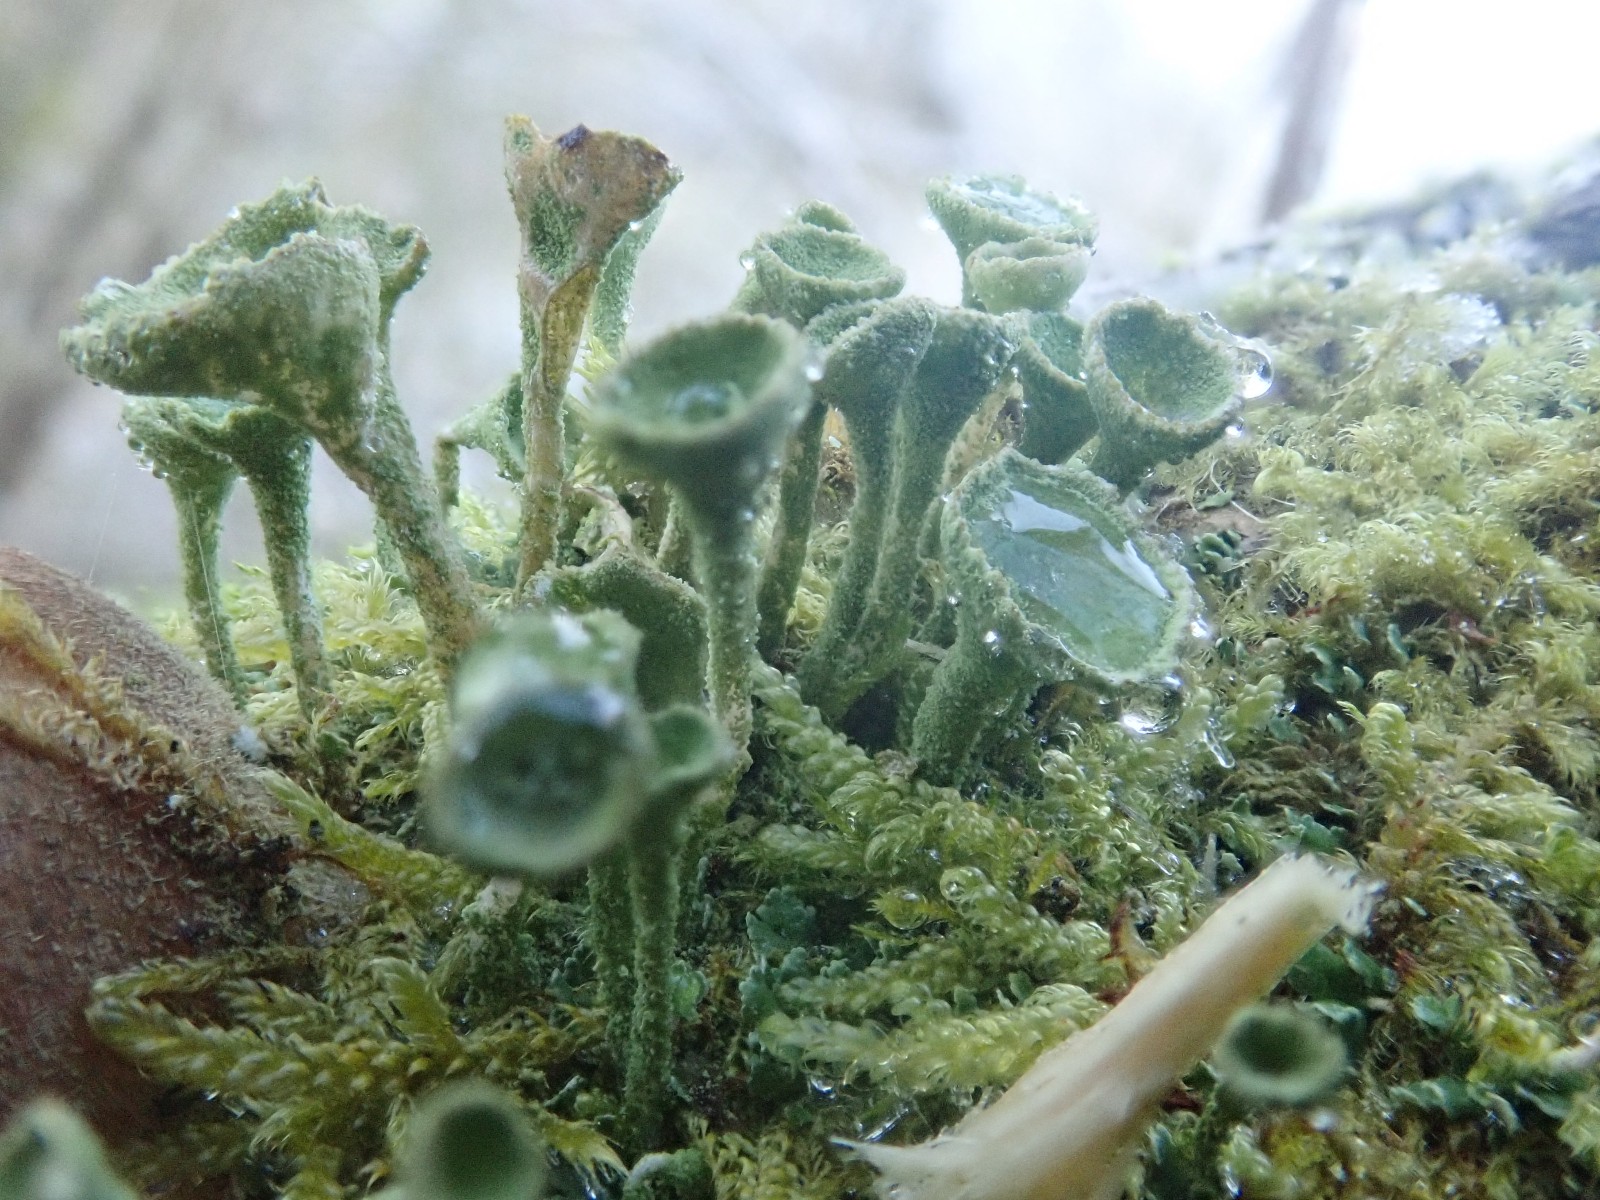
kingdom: Fungi
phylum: Ascomycota
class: Lecanoromycetes
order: Lecanorales
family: Cladoniaceae
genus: Cladonia
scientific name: Cladonia fimbriata
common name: bleggrøn bægerlav
